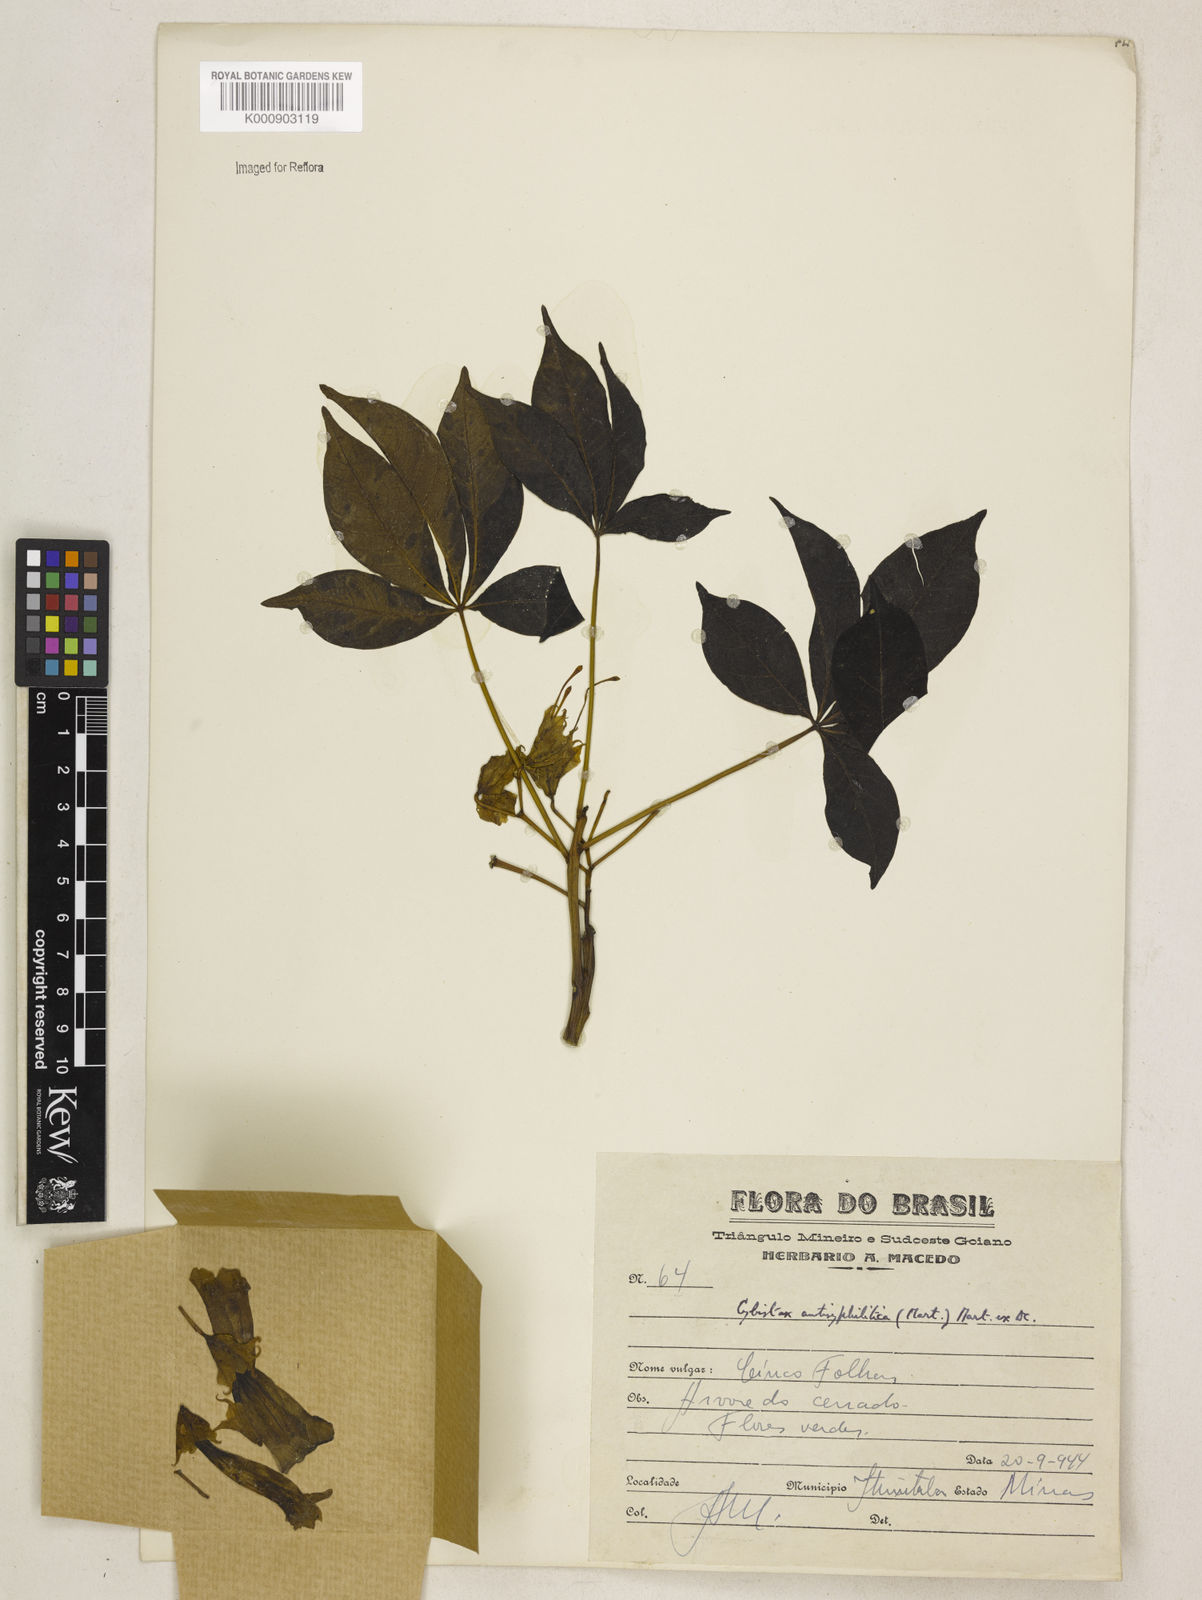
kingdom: Plantae
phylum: Tracheophyta
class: Magnoliopsida
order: Lamiales
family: Bignoniaceae
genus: Cybistax
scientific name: Cybistax antisyphilitica
